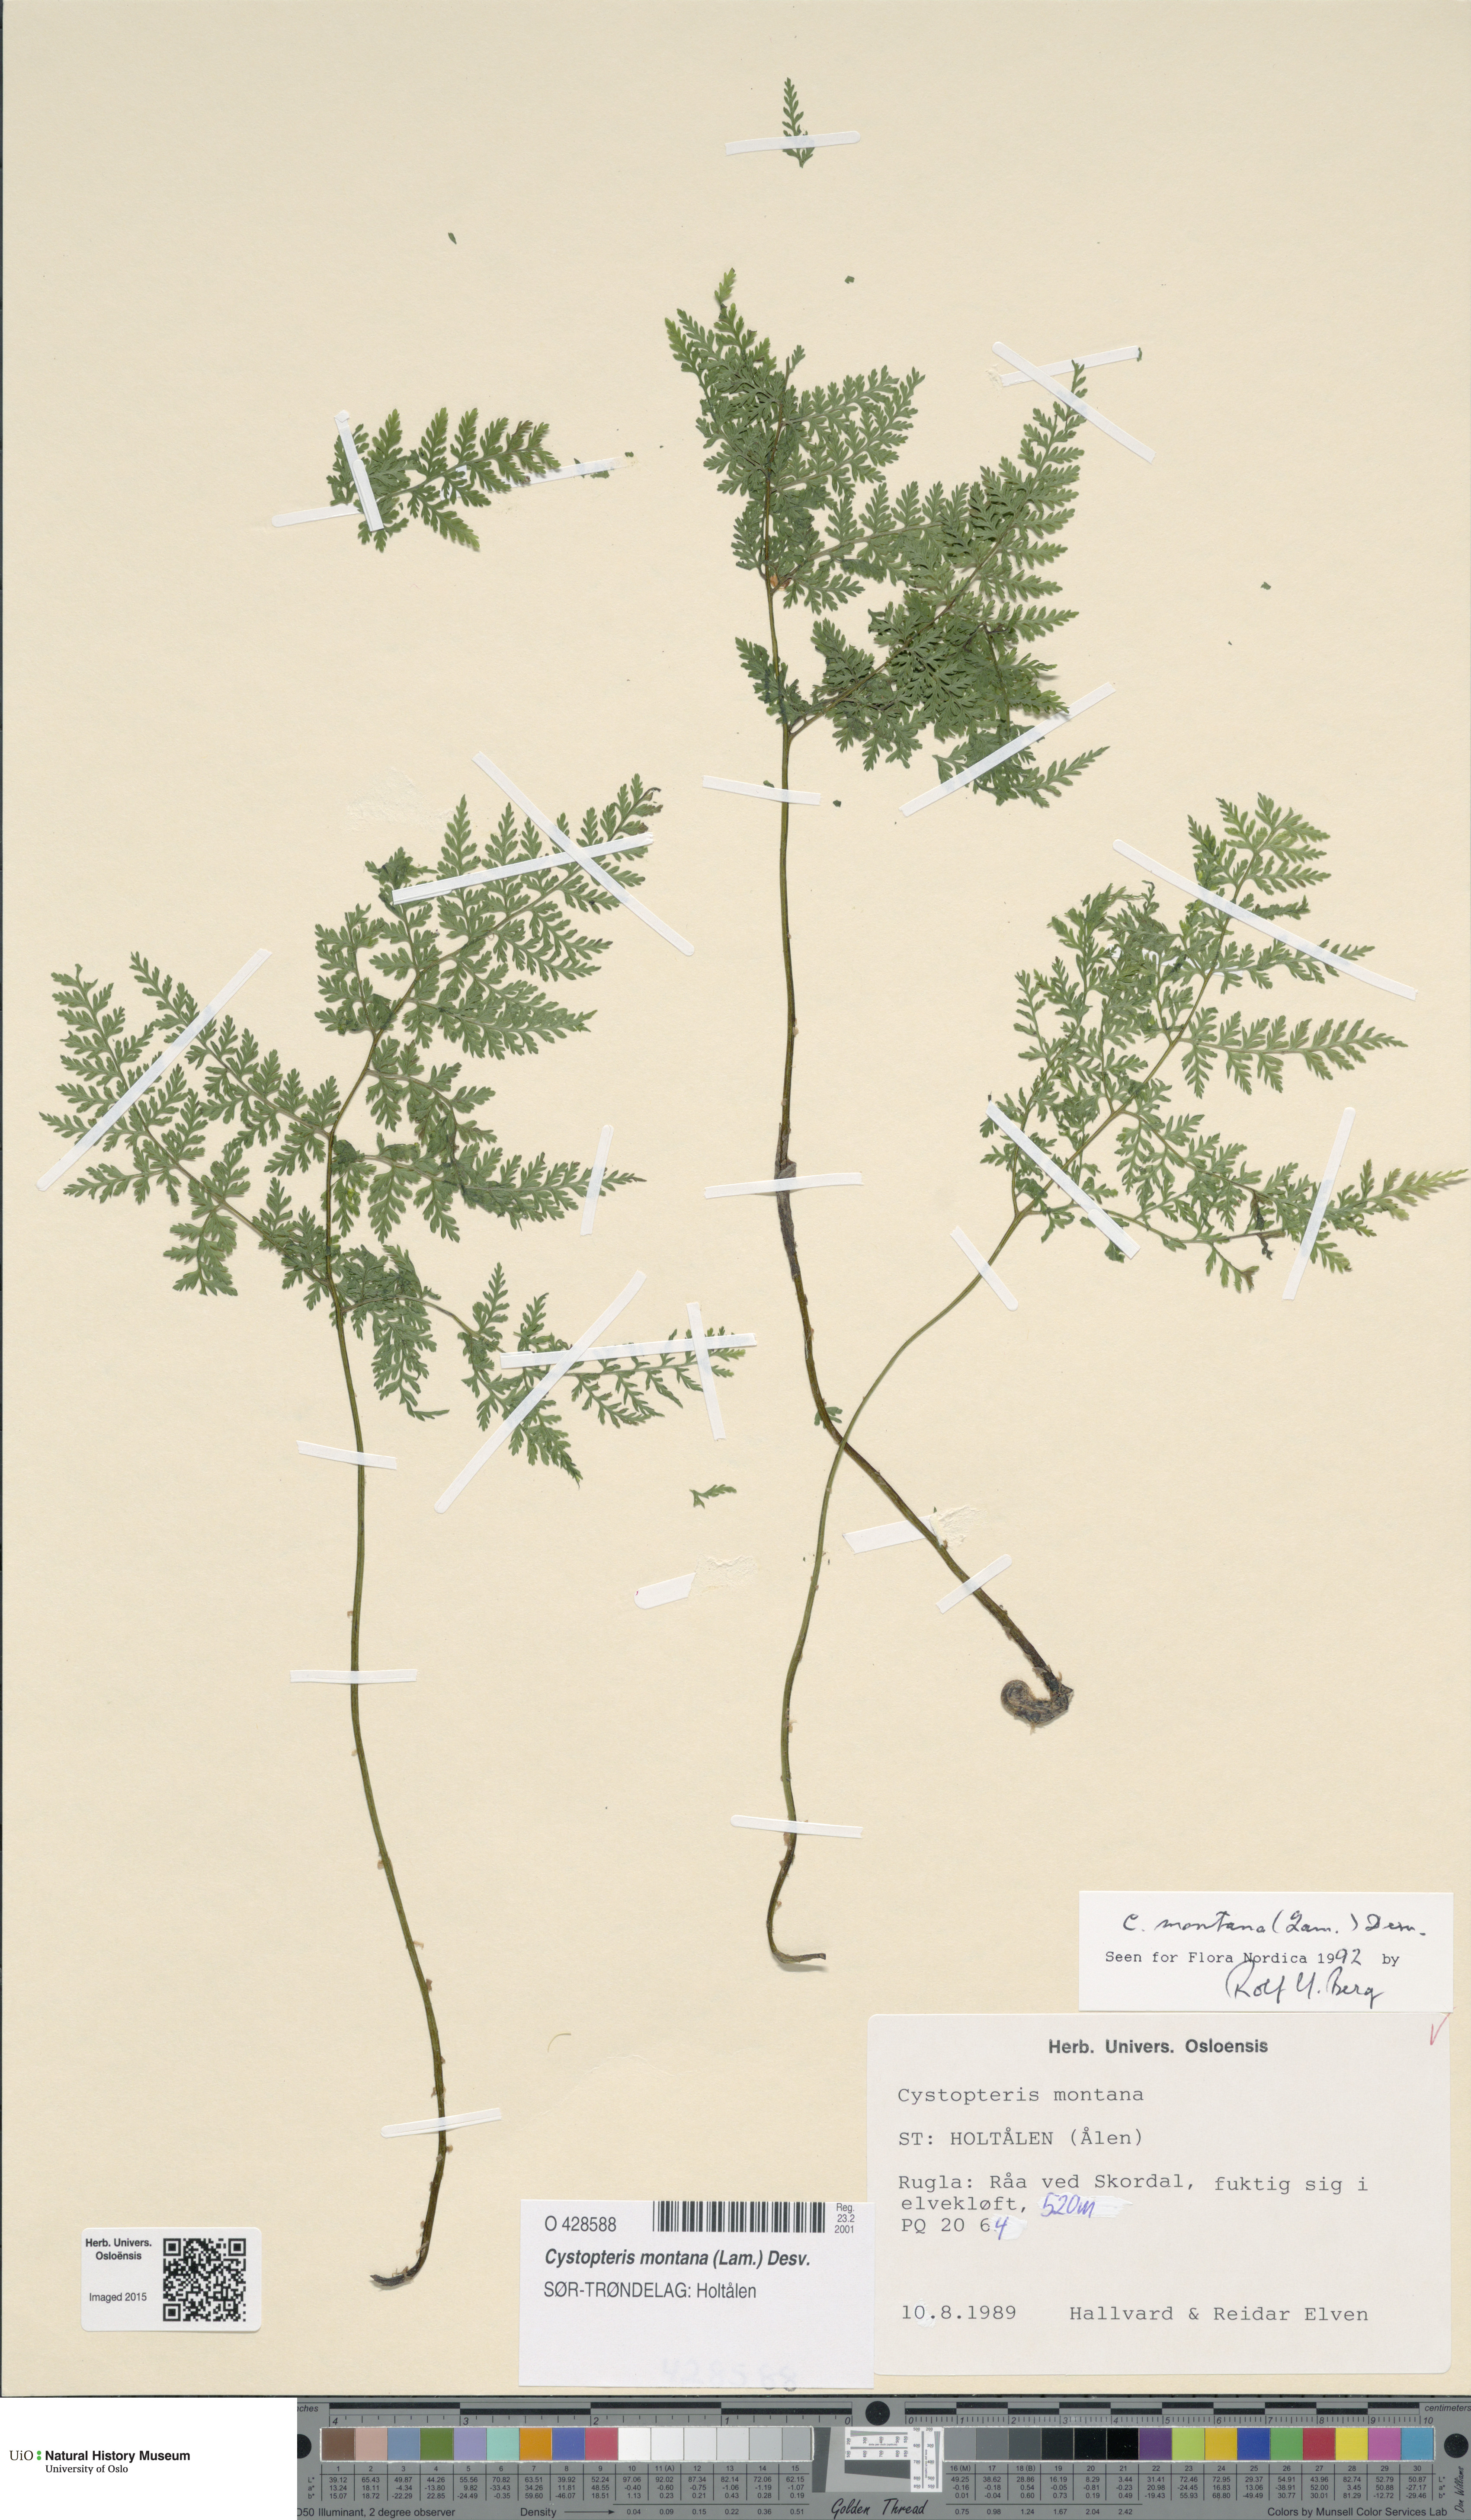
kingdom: Plantae
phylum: Tracheophyta
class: Polypodiopsida
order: Polypodiales
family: Cystopteridaceae
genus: Cystopteris
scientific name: Cystopteris montana
